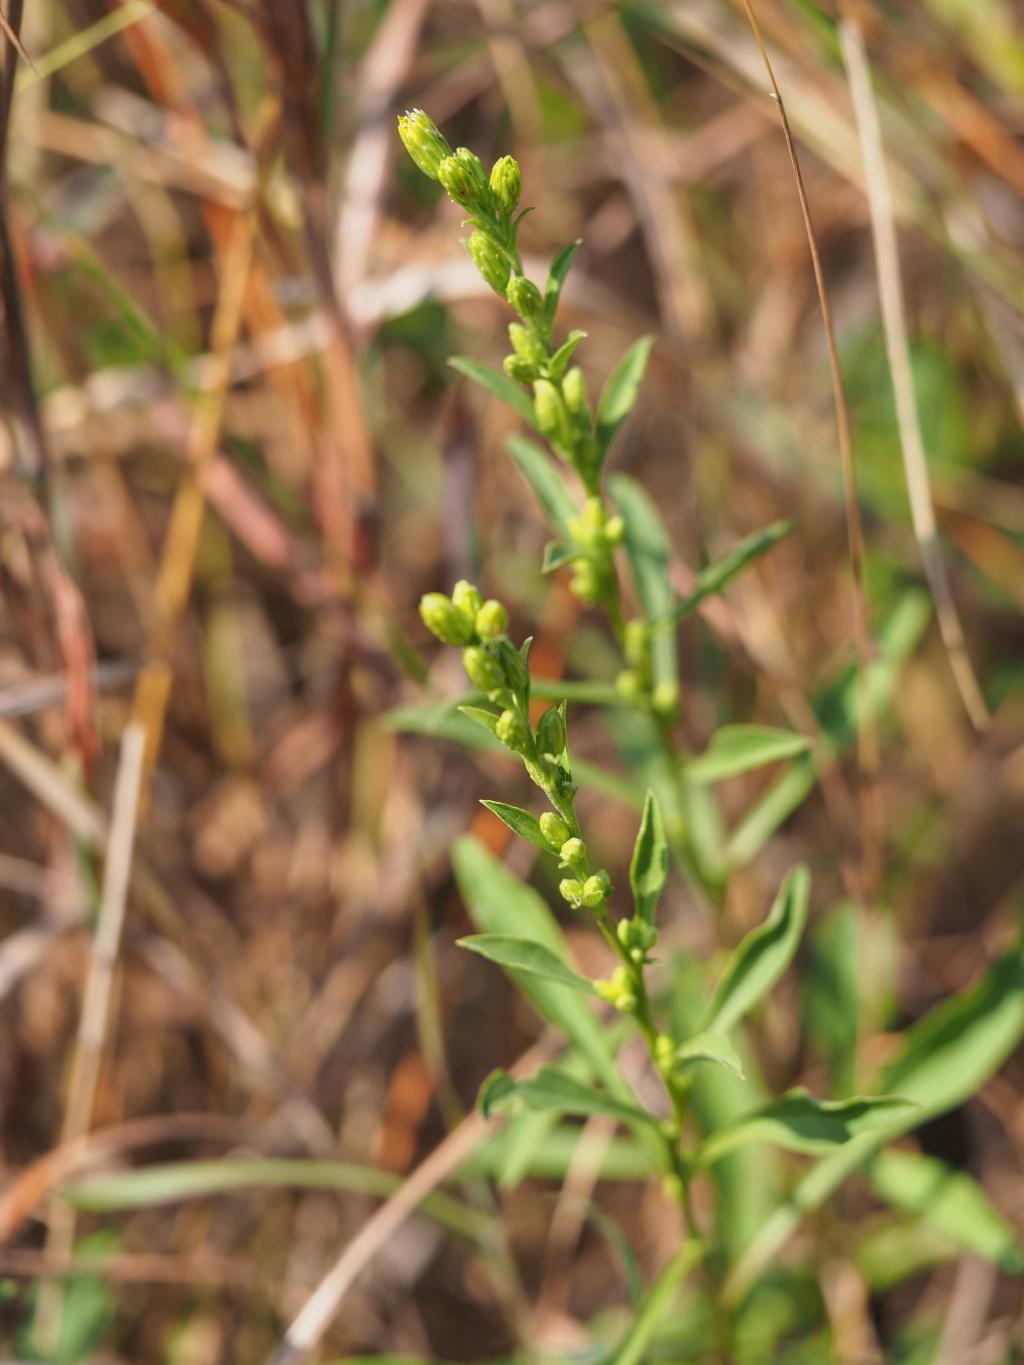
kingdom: Plantae
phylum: Tracheophyta
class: Magnoliopsida
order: Asterales
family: Asteraceae
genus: Solidago
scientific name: Solidago decurrens
